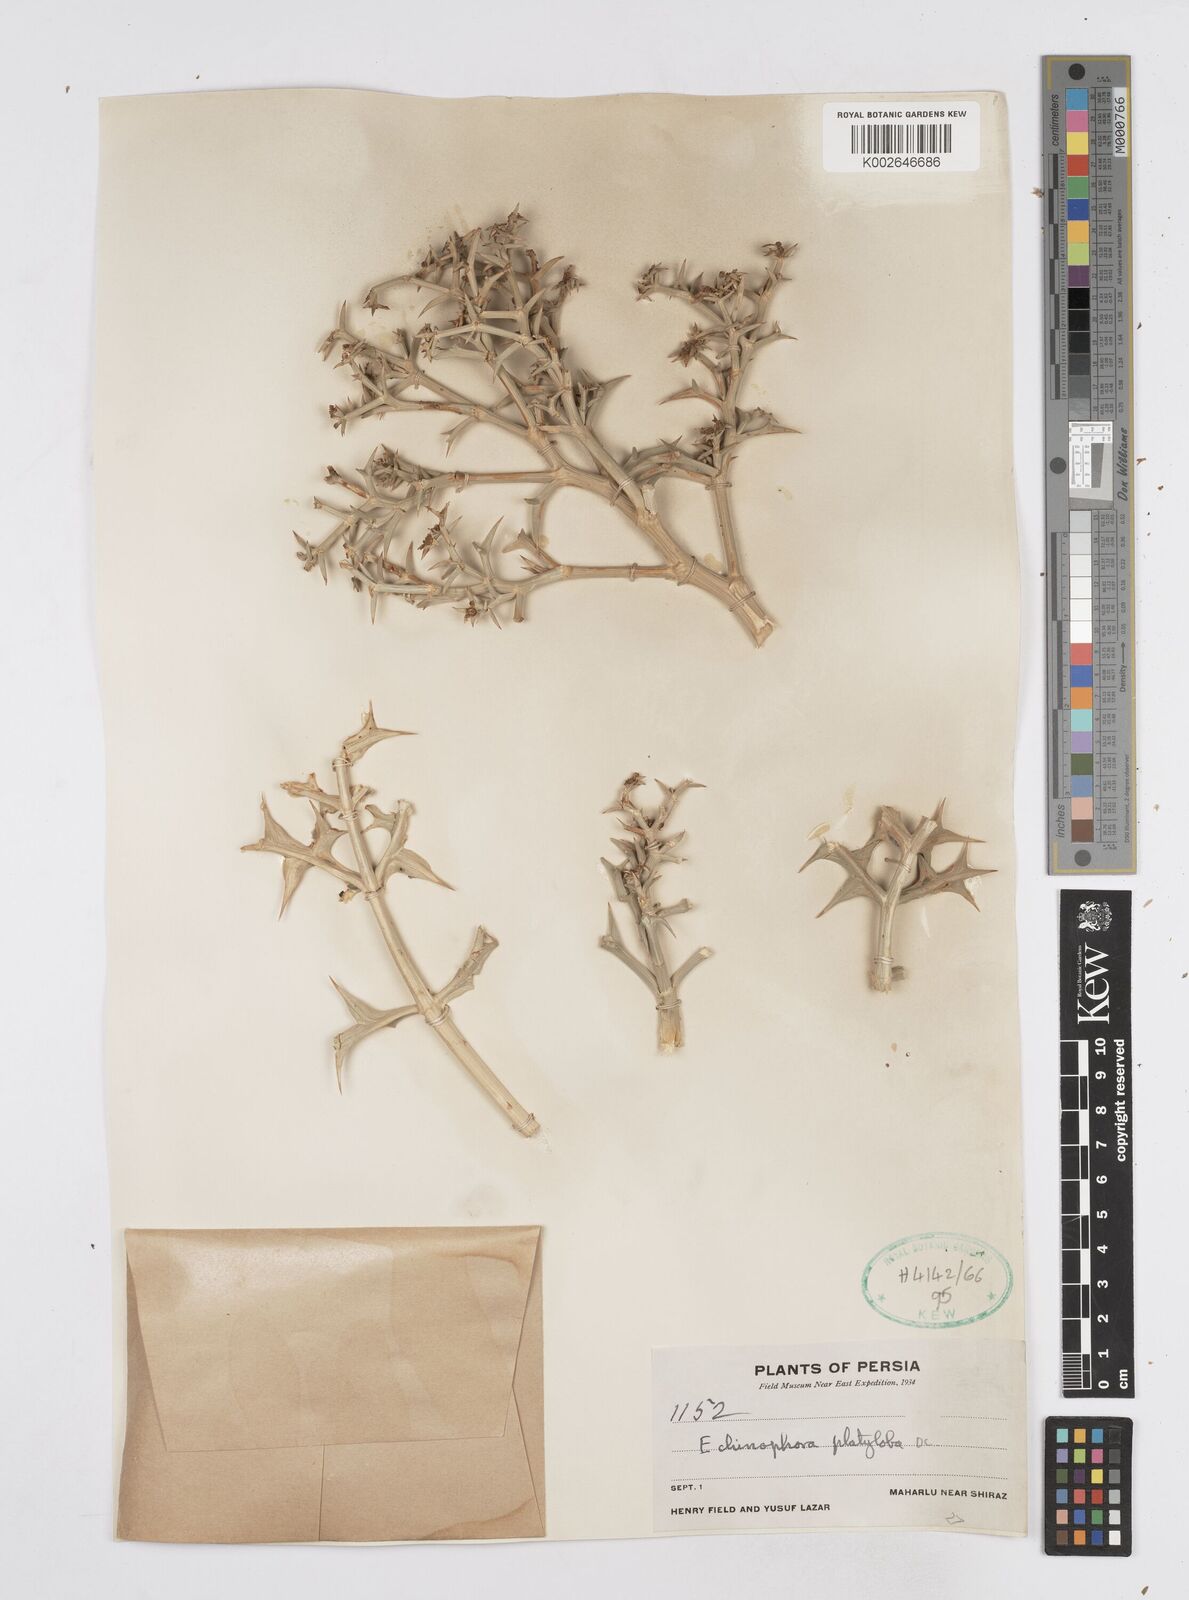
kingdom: Plantae
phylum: Tracheophyta
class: Magnoliopsida
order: Apiales
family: Apiaceae
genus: Echinophora
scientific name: Echinophora platyloba
